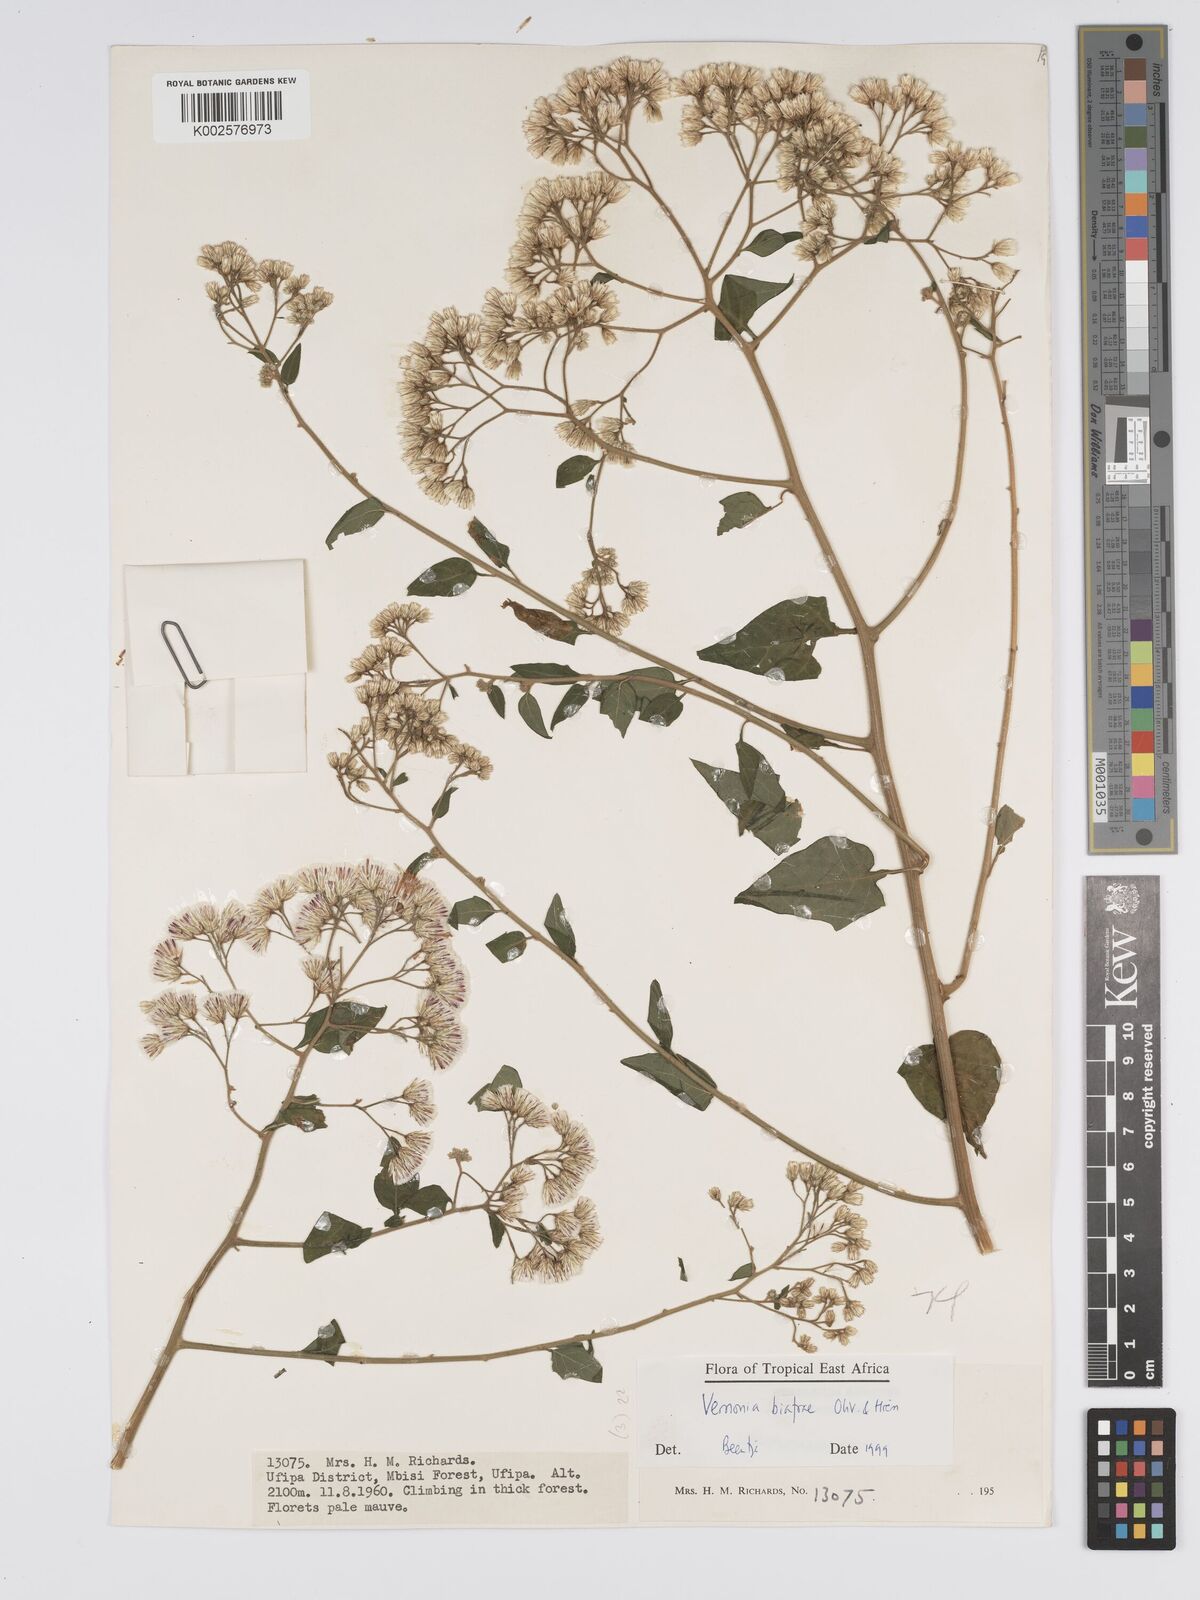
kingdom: Plantae
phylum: Tracheophyta
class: Magnoliopsida
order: Asterales
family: Asteraceae
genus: Distephanus
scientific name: Distephanus biafrae
